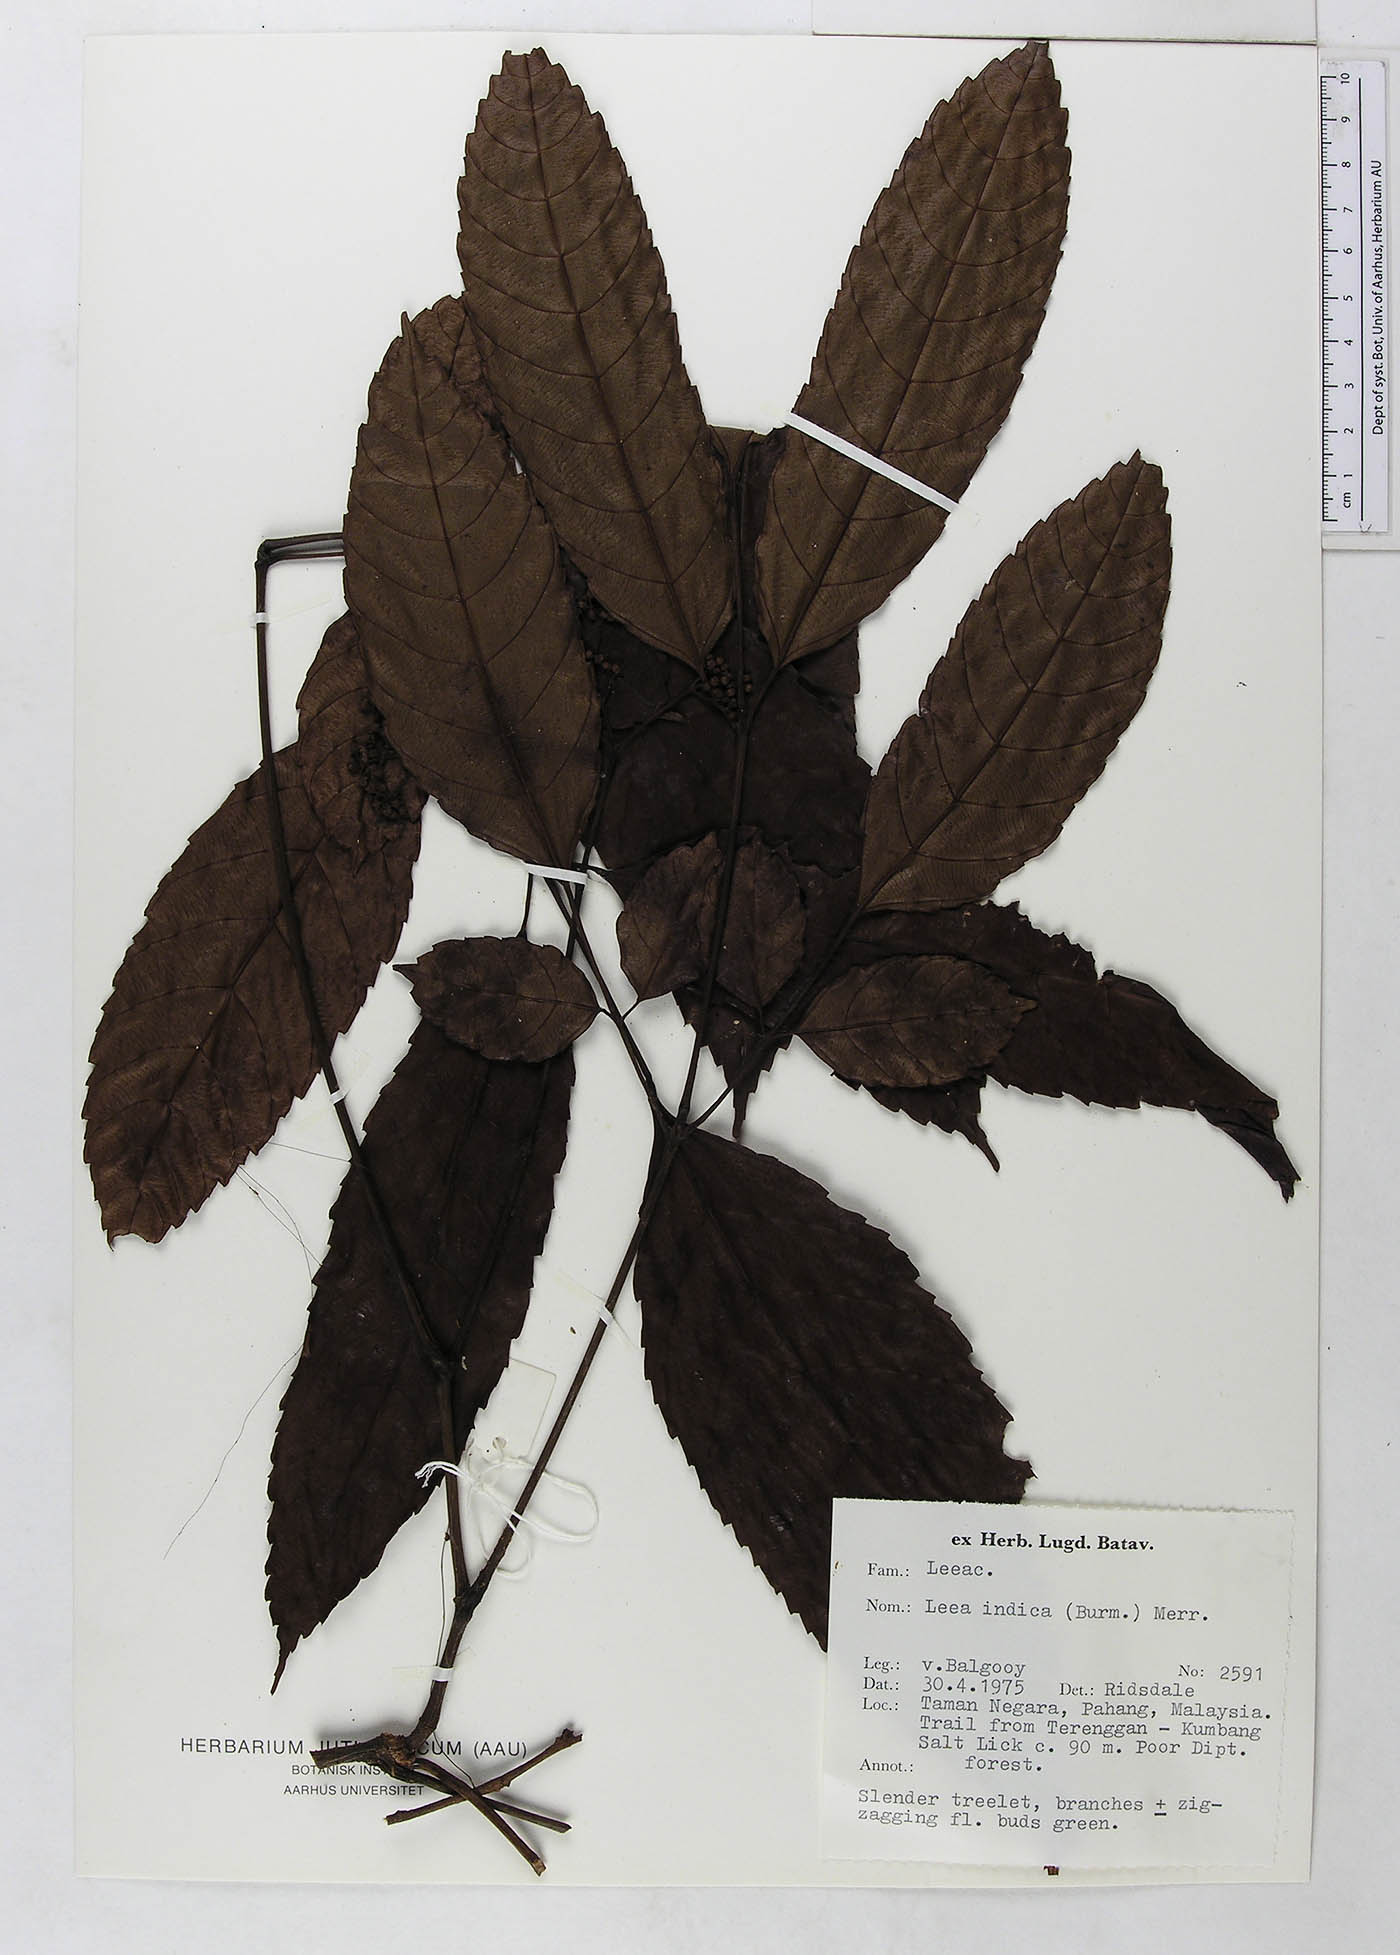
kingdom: Plantae
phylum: Tracheophyta
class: Magnoliopsida
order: Vitales
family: Vitaceae
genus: Leea
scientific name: Leea indica
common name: Bandicoot-berry
